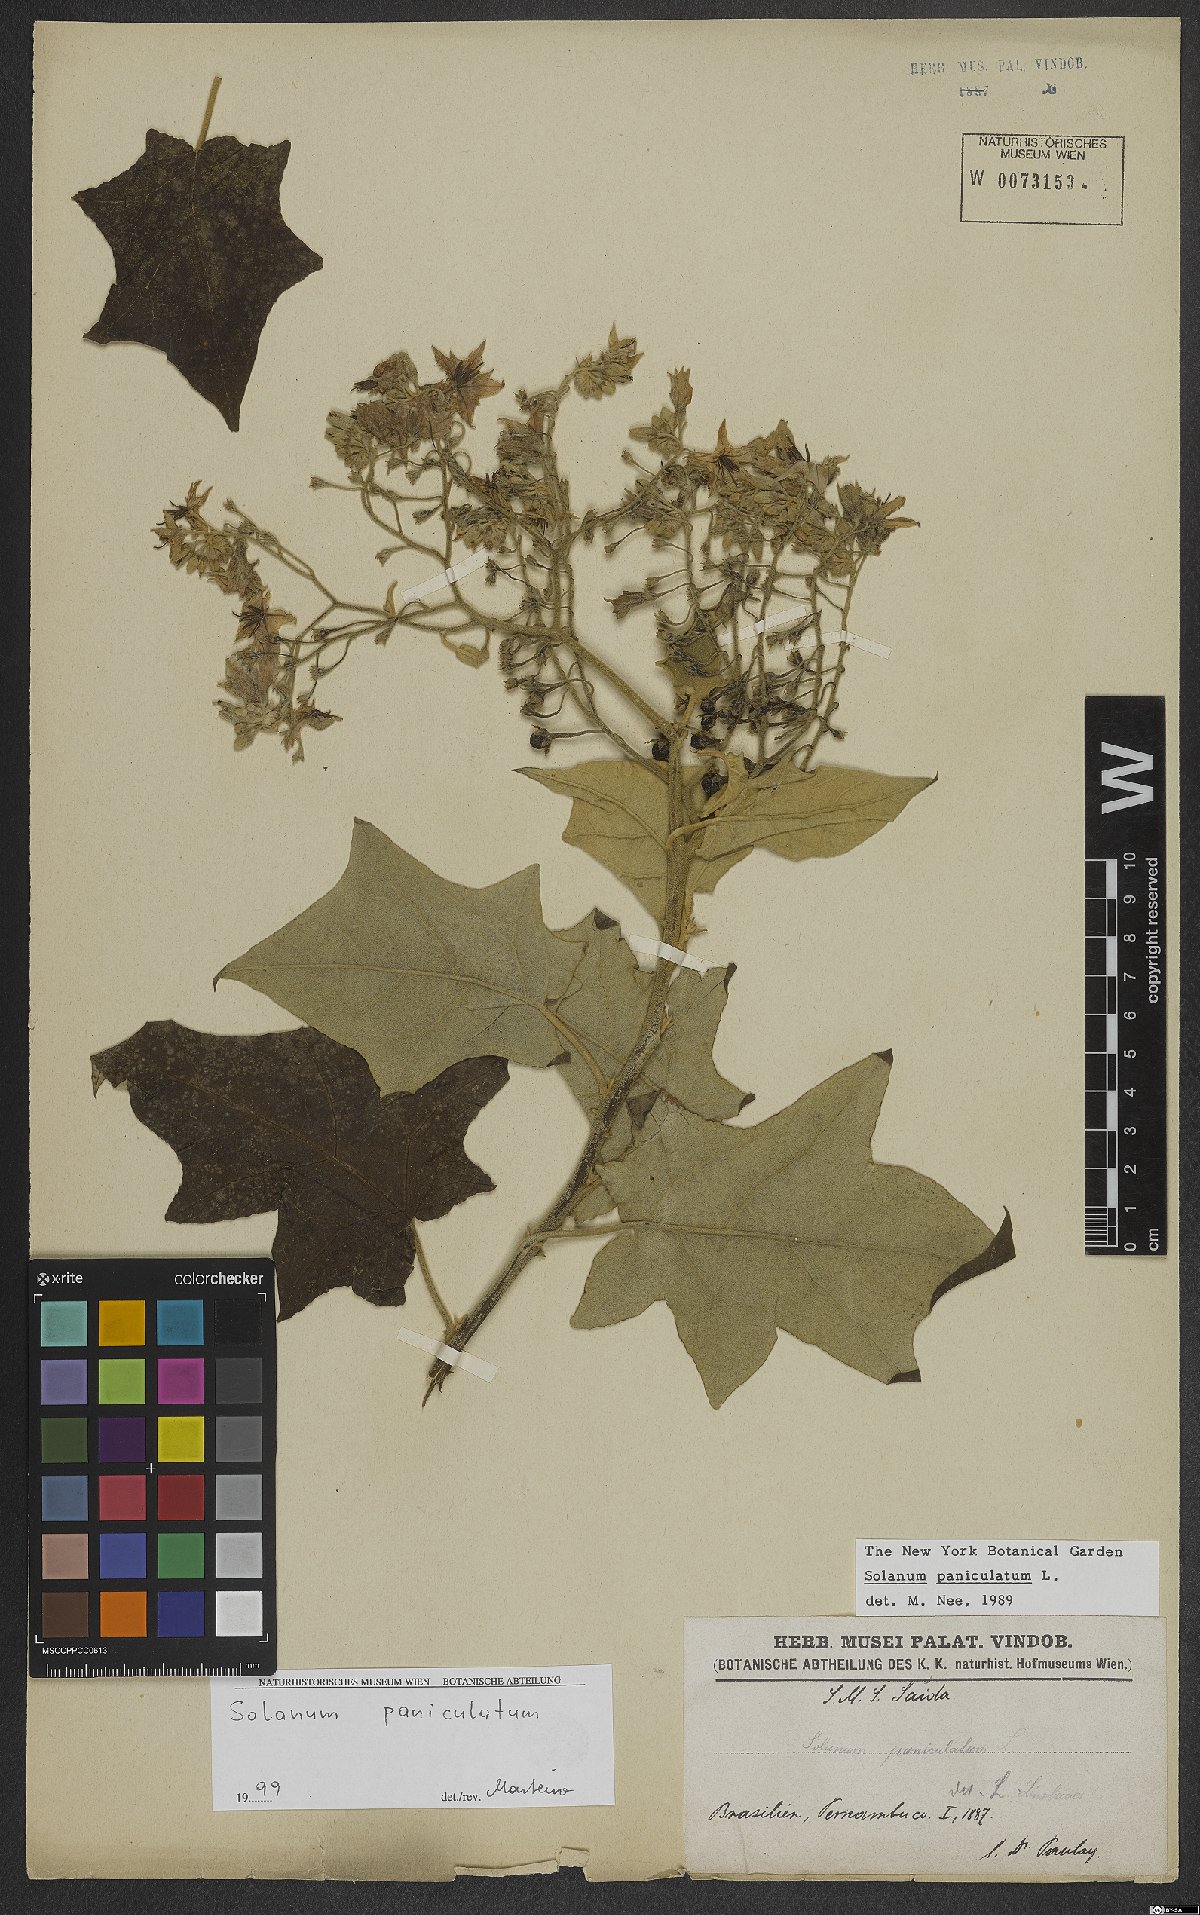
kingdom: Plantae
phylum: Tracheophyta
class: Magnoliopsida
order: Solanales
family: Solanaceae
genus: Solanum
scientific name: Solanum paniculatum
